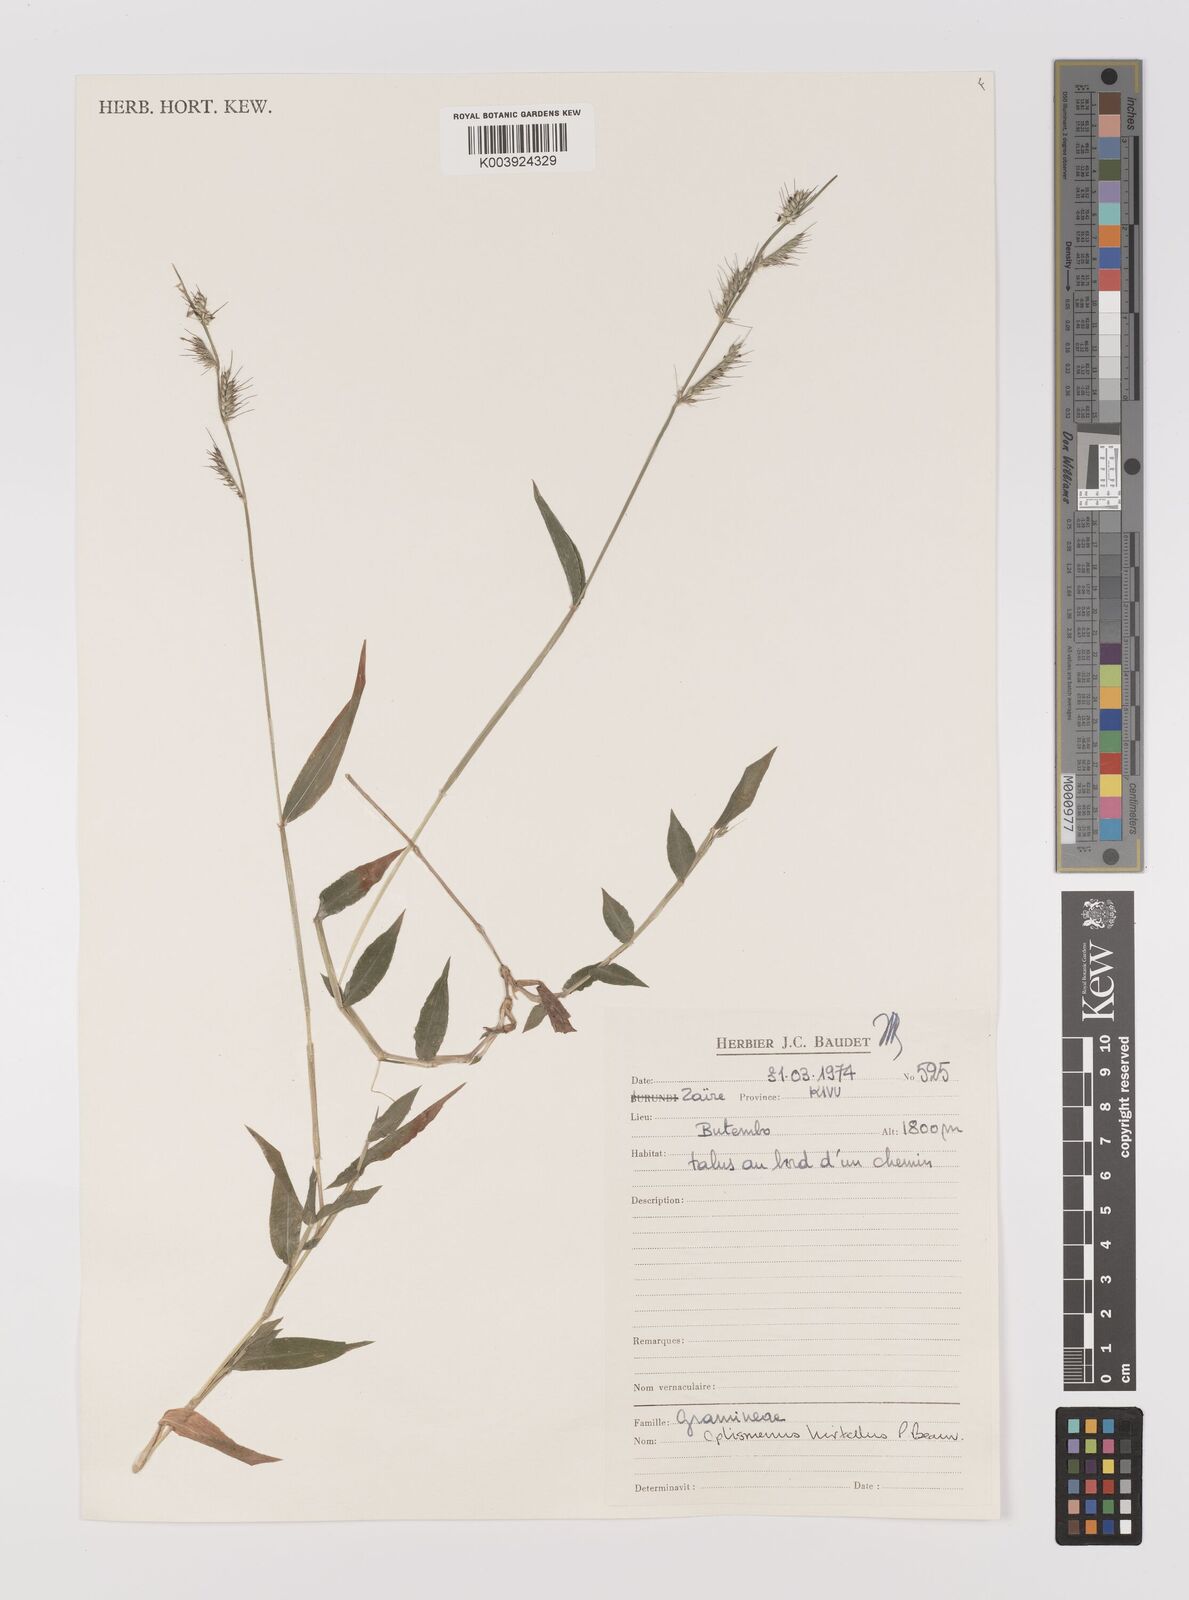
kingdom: Plantae
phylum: Tracheophyta
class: Liliopsida
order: Poales
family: Poaceae
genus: Oplismenus
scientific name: Oplismenus hirtellus
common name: Basketgrass
